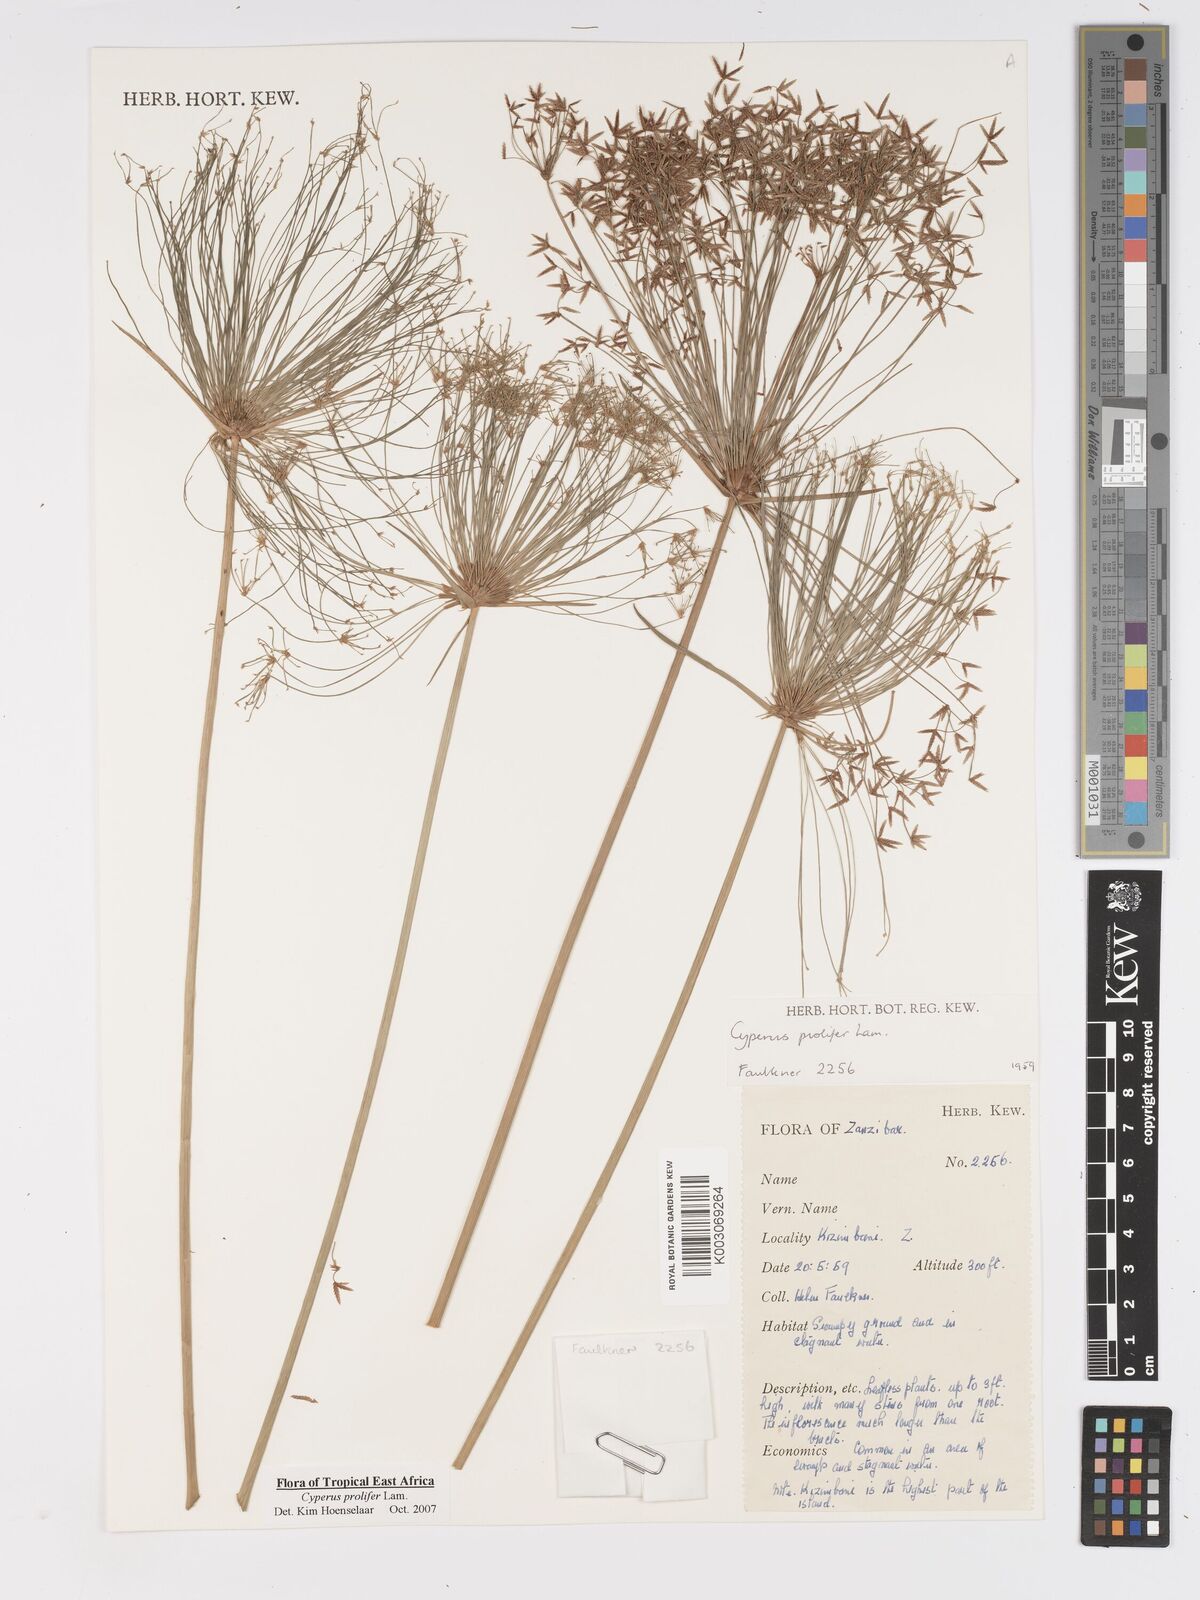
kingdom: Plantae
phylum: Tracheophyta
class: Liliopsida
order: Poales
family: Cyperaceae
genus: Cyperus
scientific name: Cyperus prolifer
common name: Miniature flatsedge
